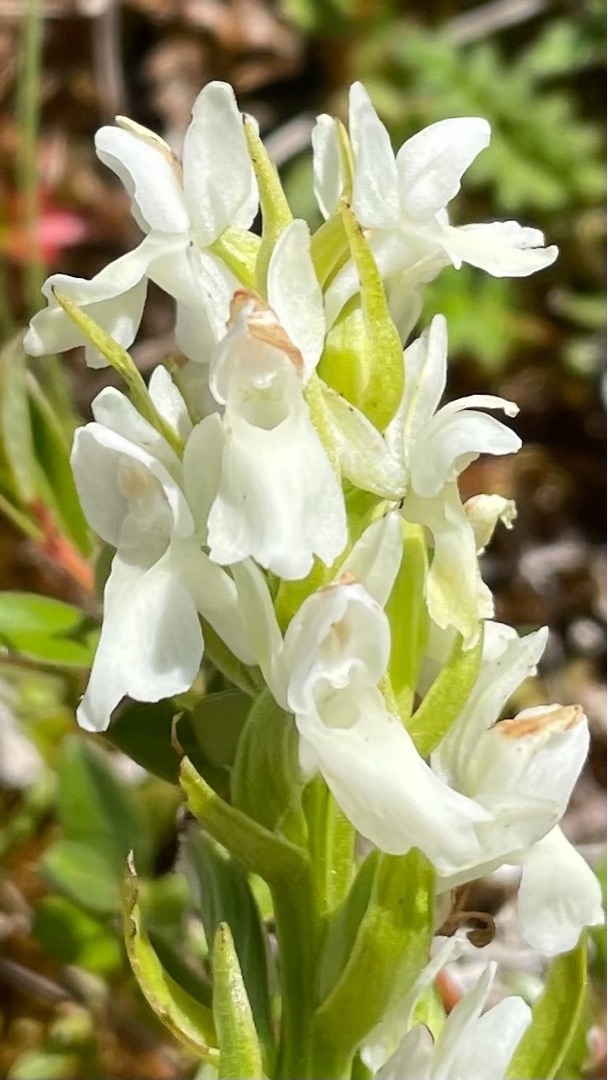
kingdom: Plantae
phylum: Tracheophyta
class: Liliopsida
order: Asparagales
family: Orchidaceae
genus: Dactylorhiza
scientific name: Dactylorhiza incarnata
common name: Kødfarvet gøgeurt
